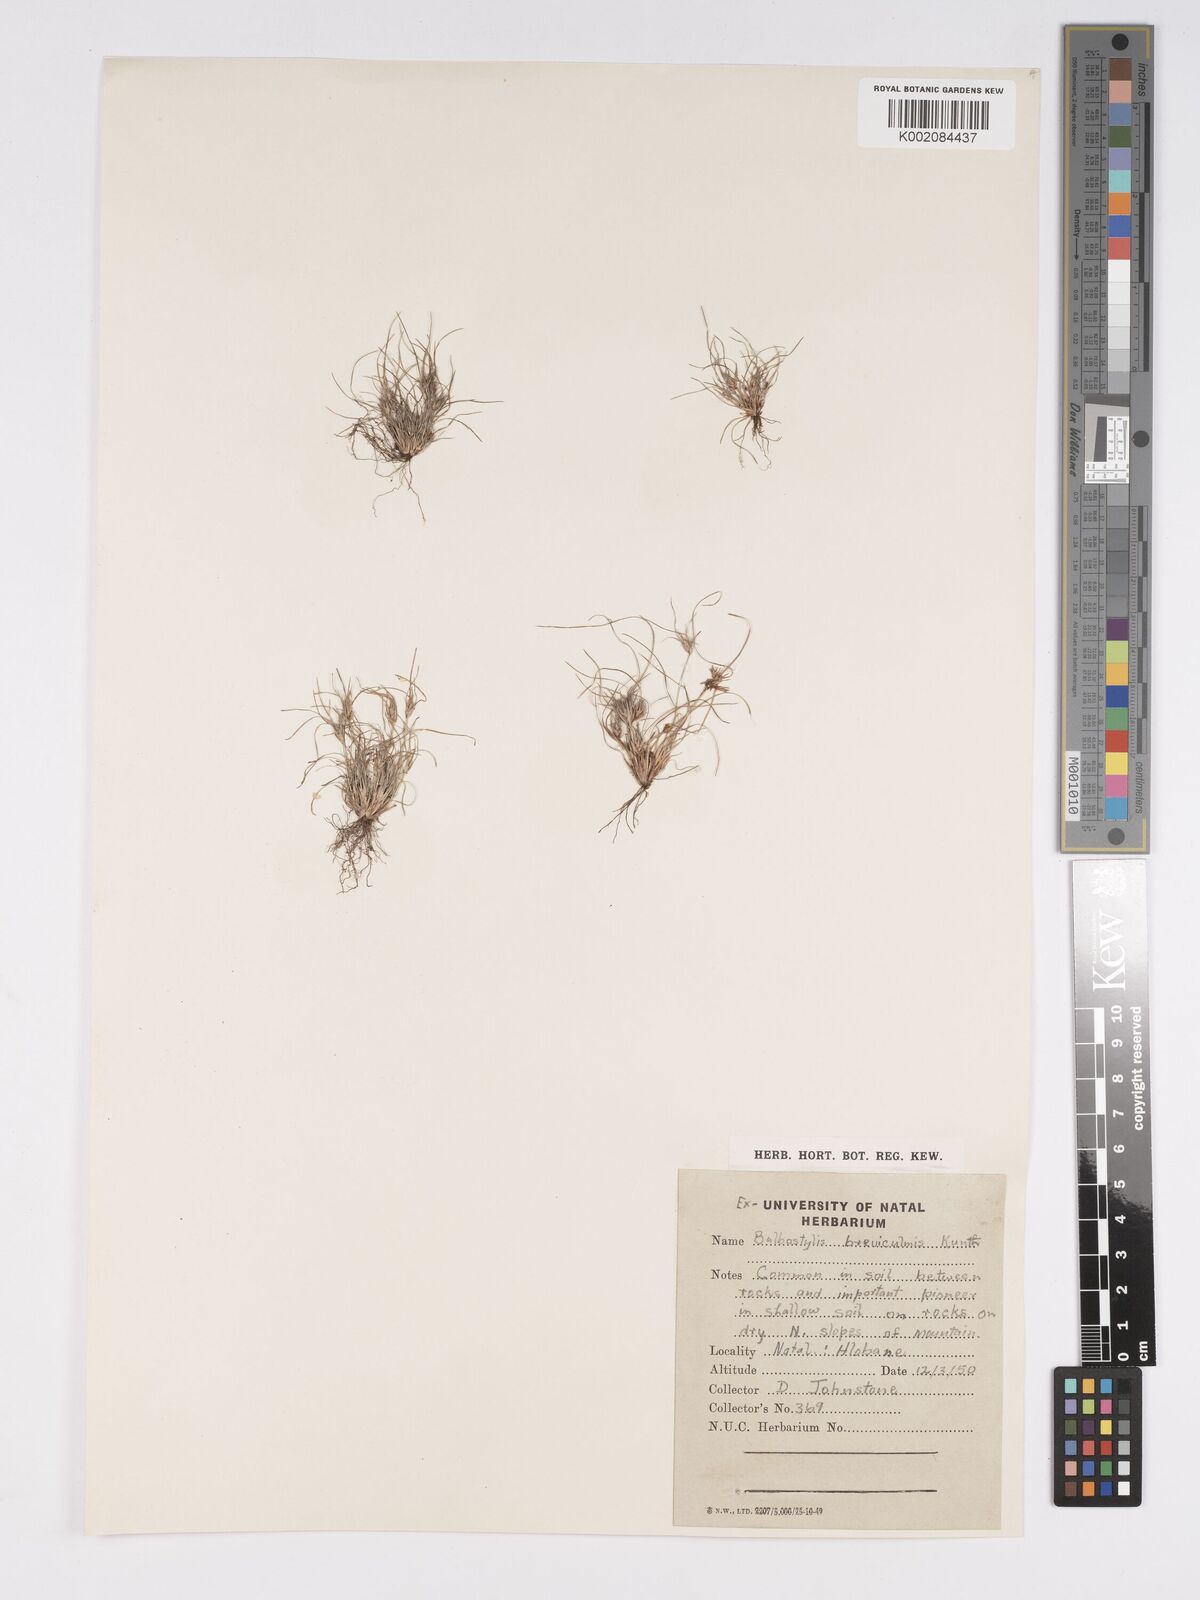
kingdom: Plantae
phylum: Tracheophyta
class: Liliopsida
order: Poales
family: Cyperaceae
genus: Bulbostylis
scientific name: Bulbostylis humilis
